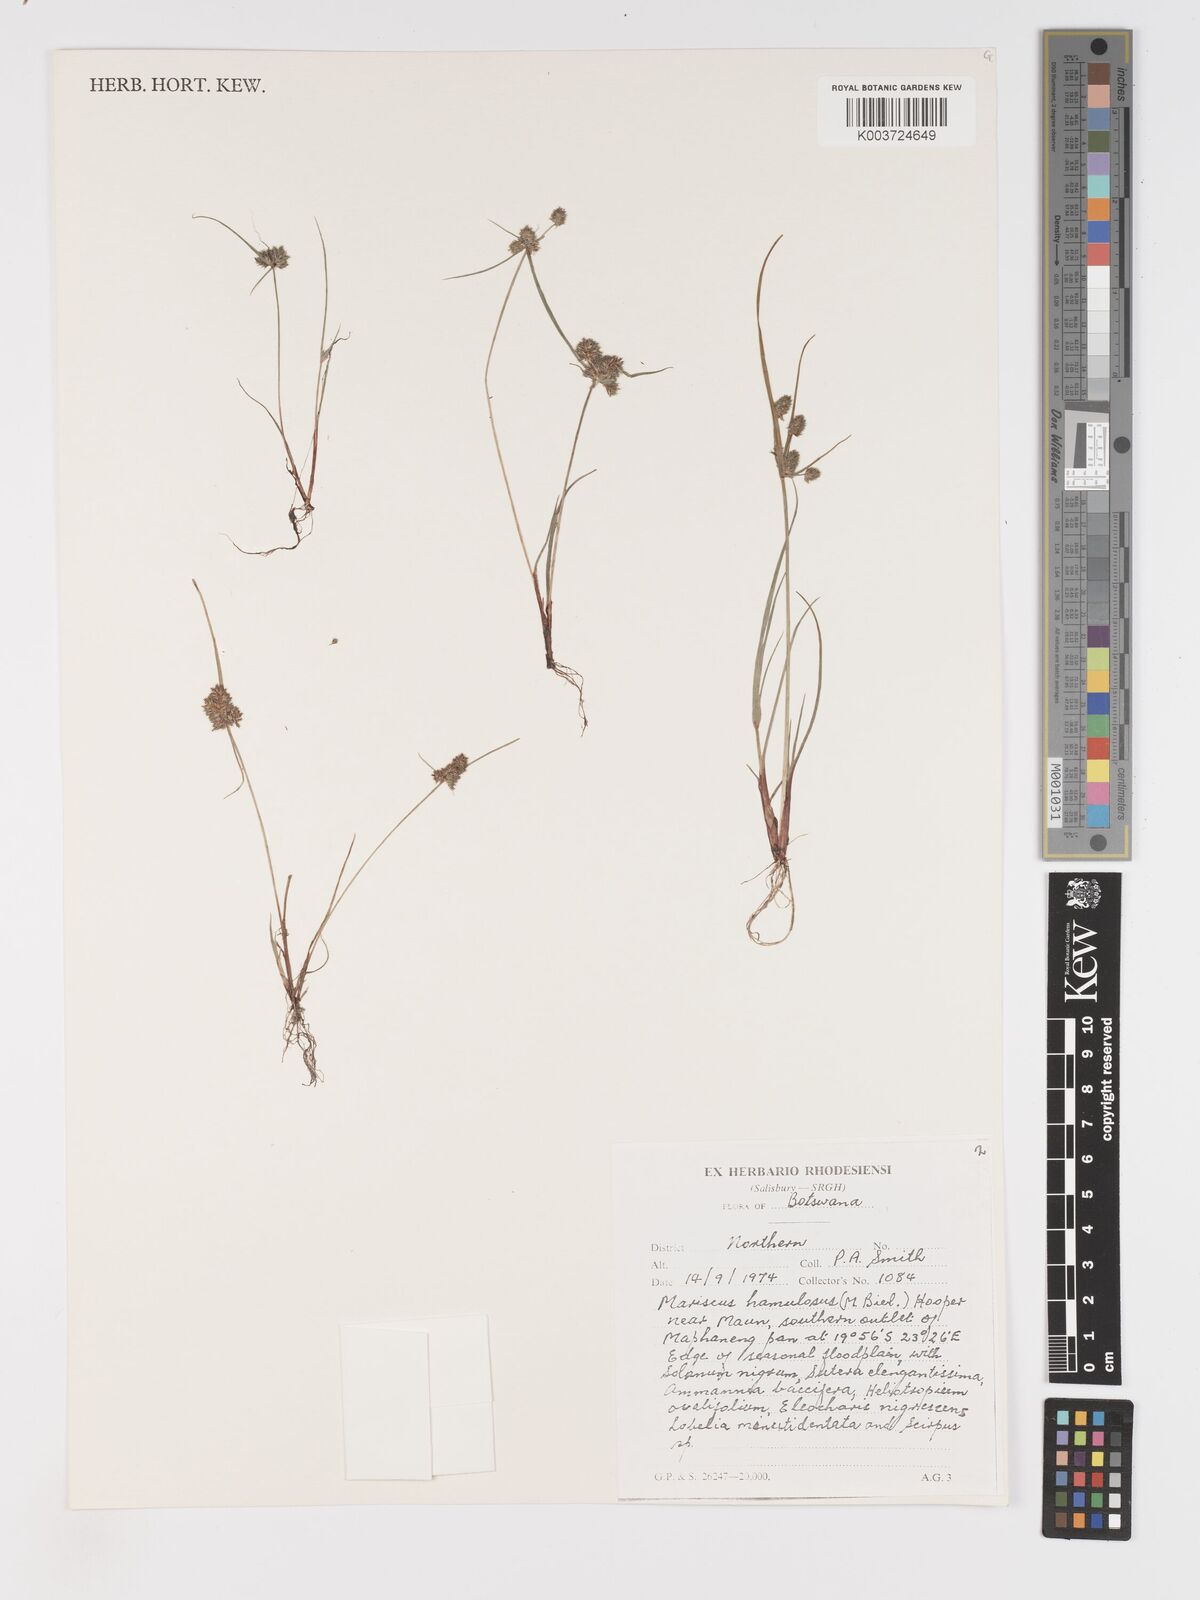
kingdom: Plantae
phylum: Tracheophyta
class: Liliopsida
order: Poales
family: Cyperaceae
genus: Cyperus
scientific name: Cyperus hamulosus
